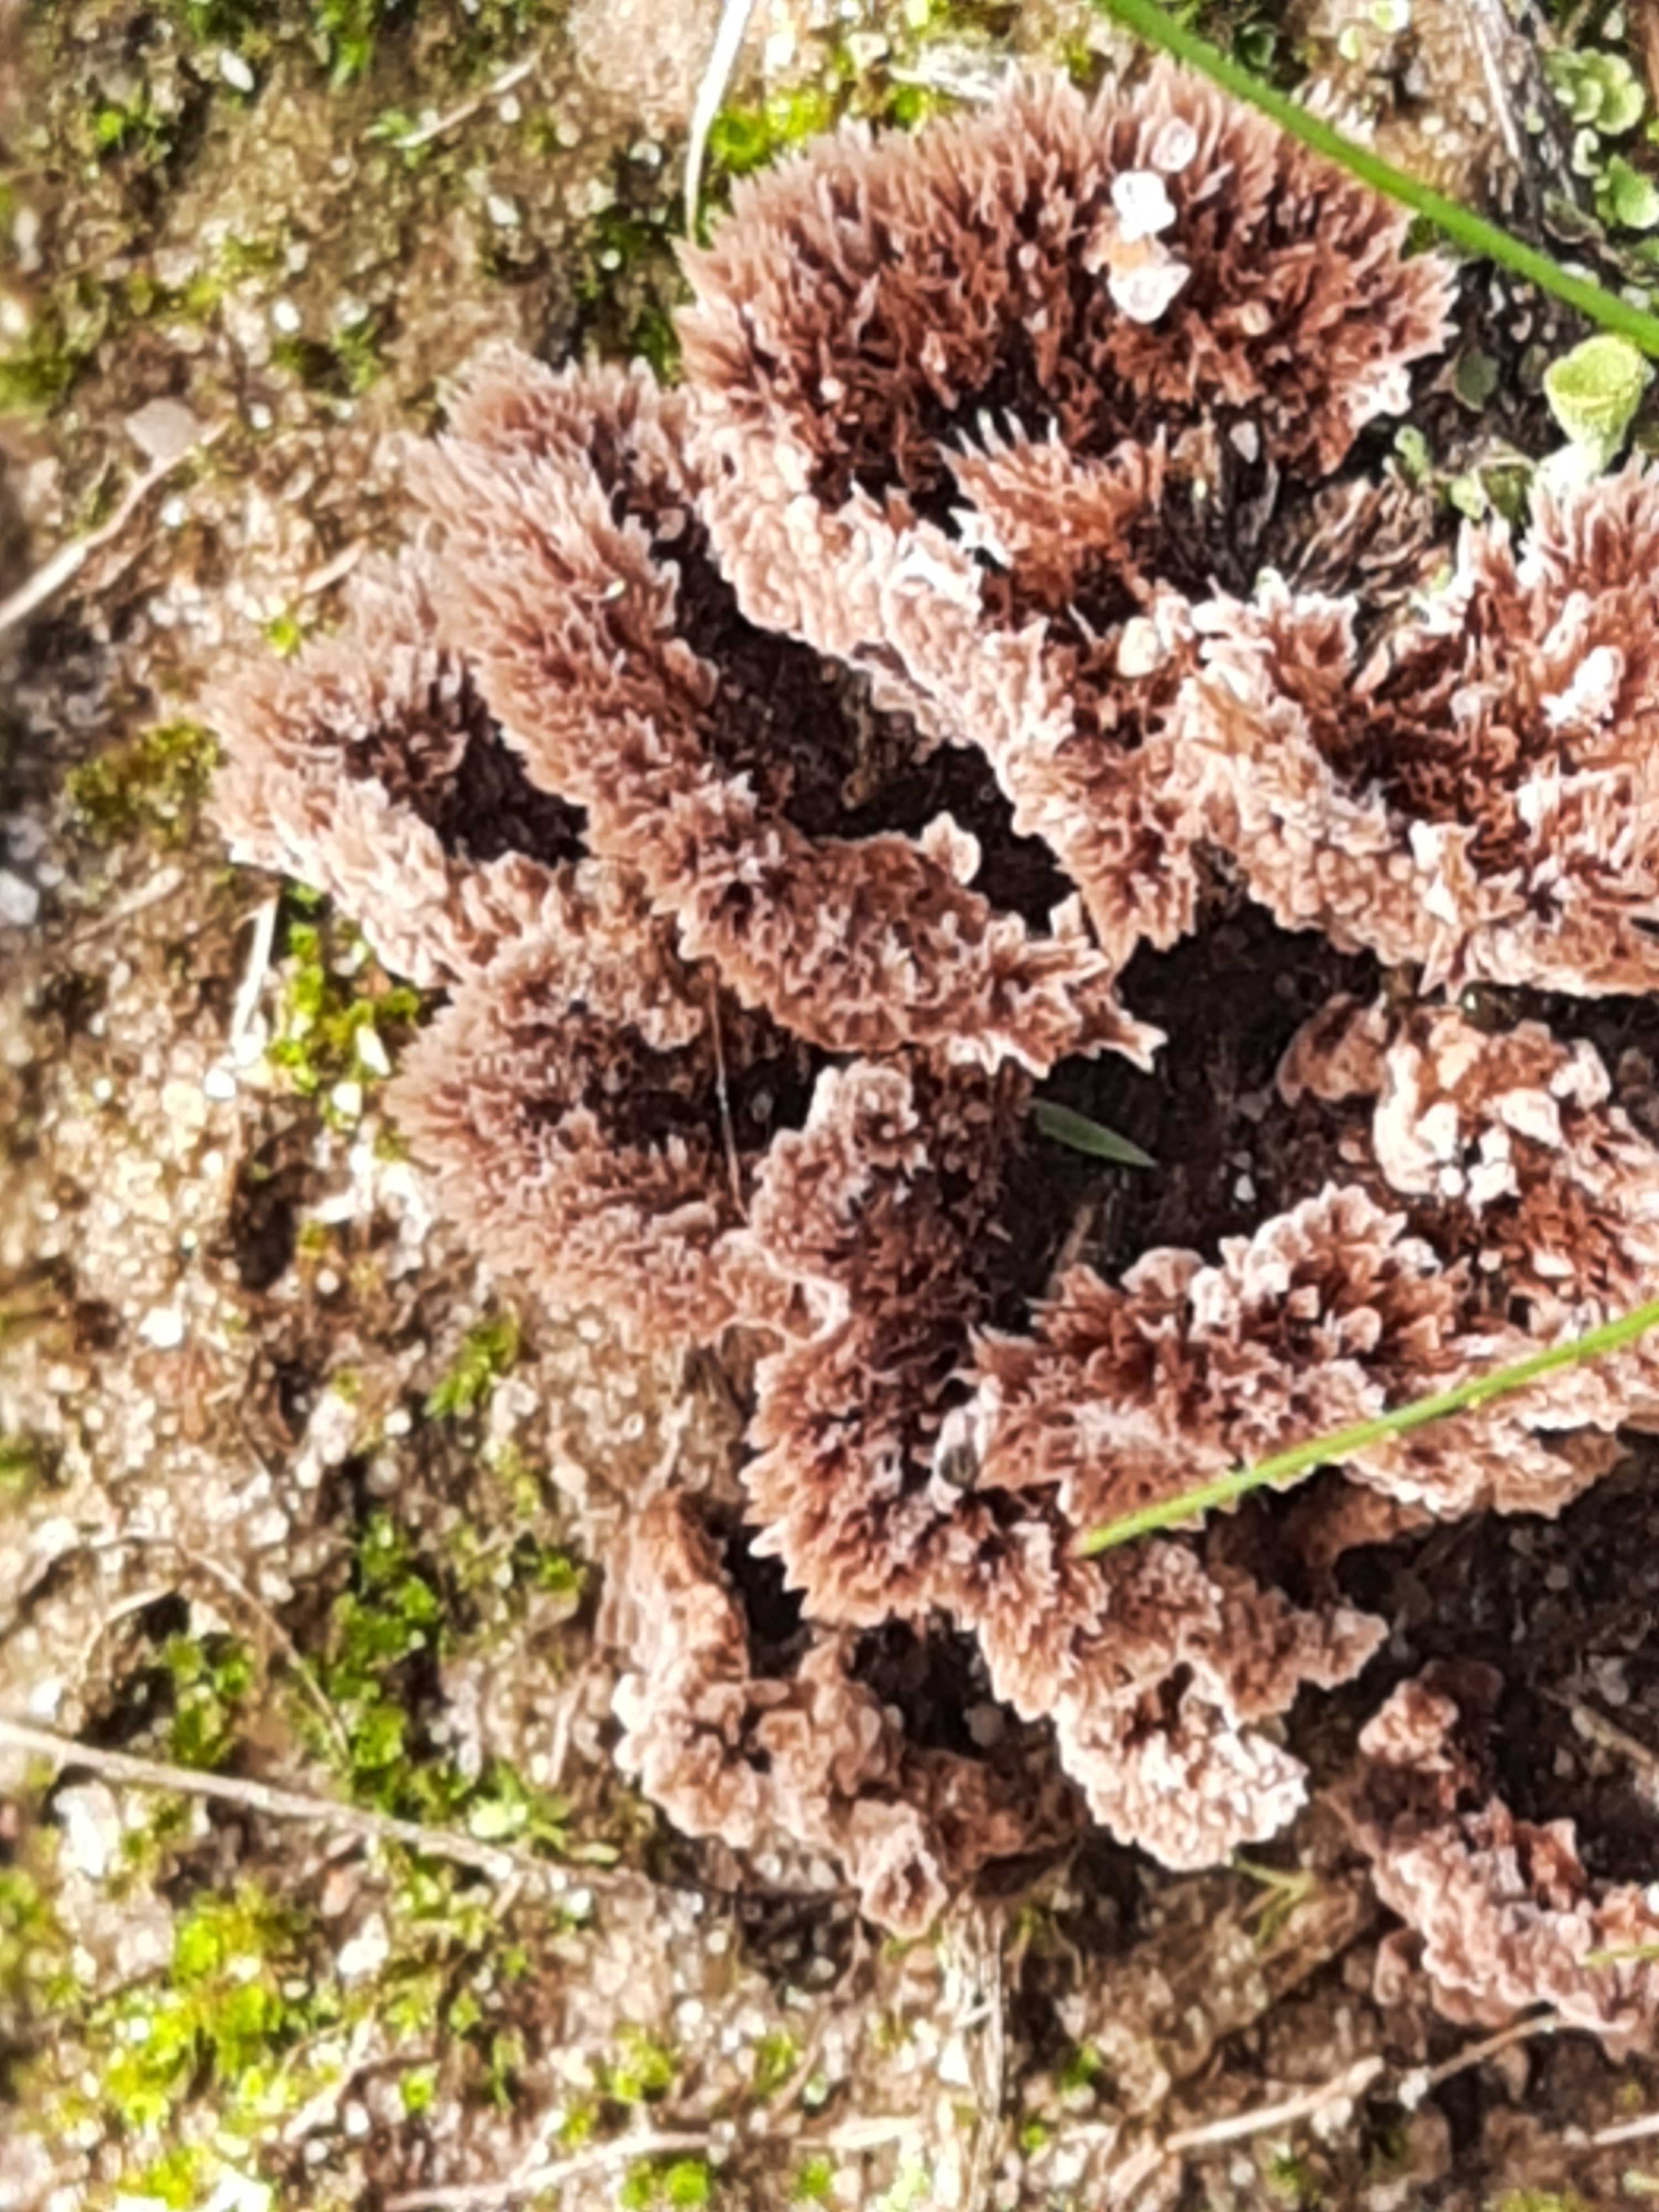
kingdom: Fungi
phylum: Basidiomycota
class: Agaricomycetes
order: Thelephorales
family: Thelephoraceae
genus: Thelephora
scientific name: Thelephora terrestris
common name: fliget frynsesvamp
